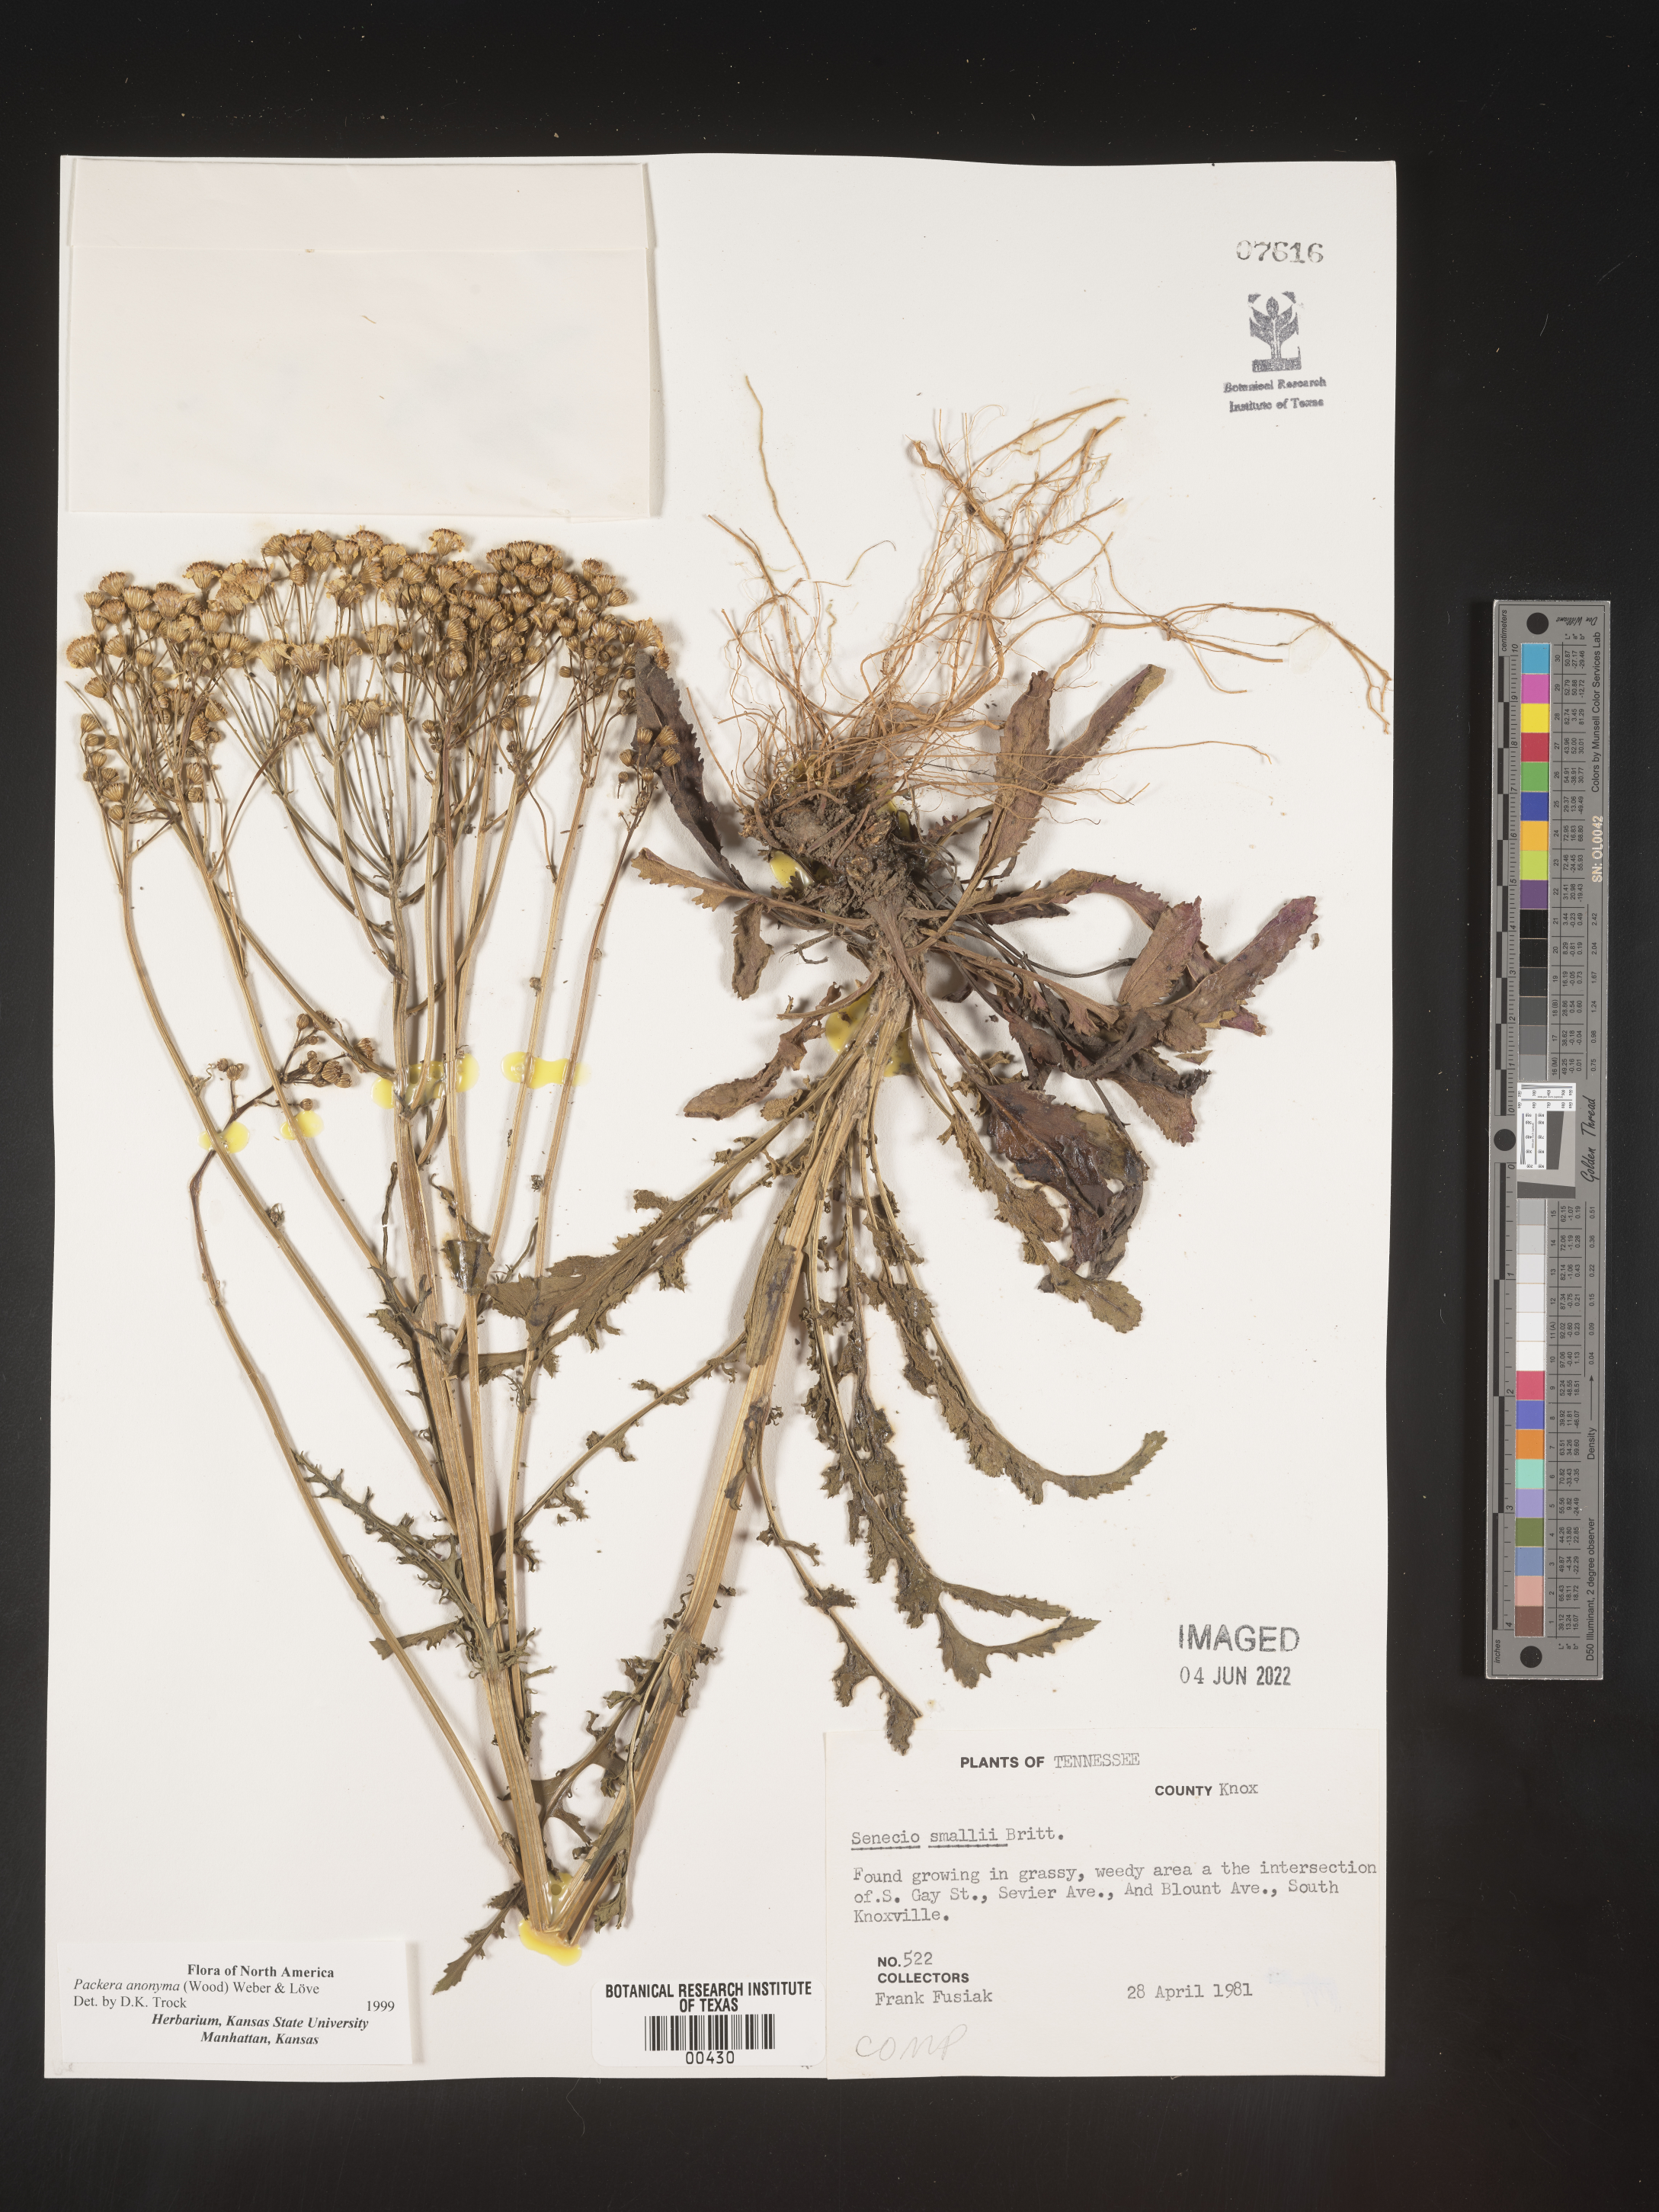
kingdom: Plantae
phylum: Tracheophyta
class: Magnoliopsida
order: Asterales
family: Asteraceae
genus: Packera
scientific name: Packera anonyma
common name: Small ragwort
